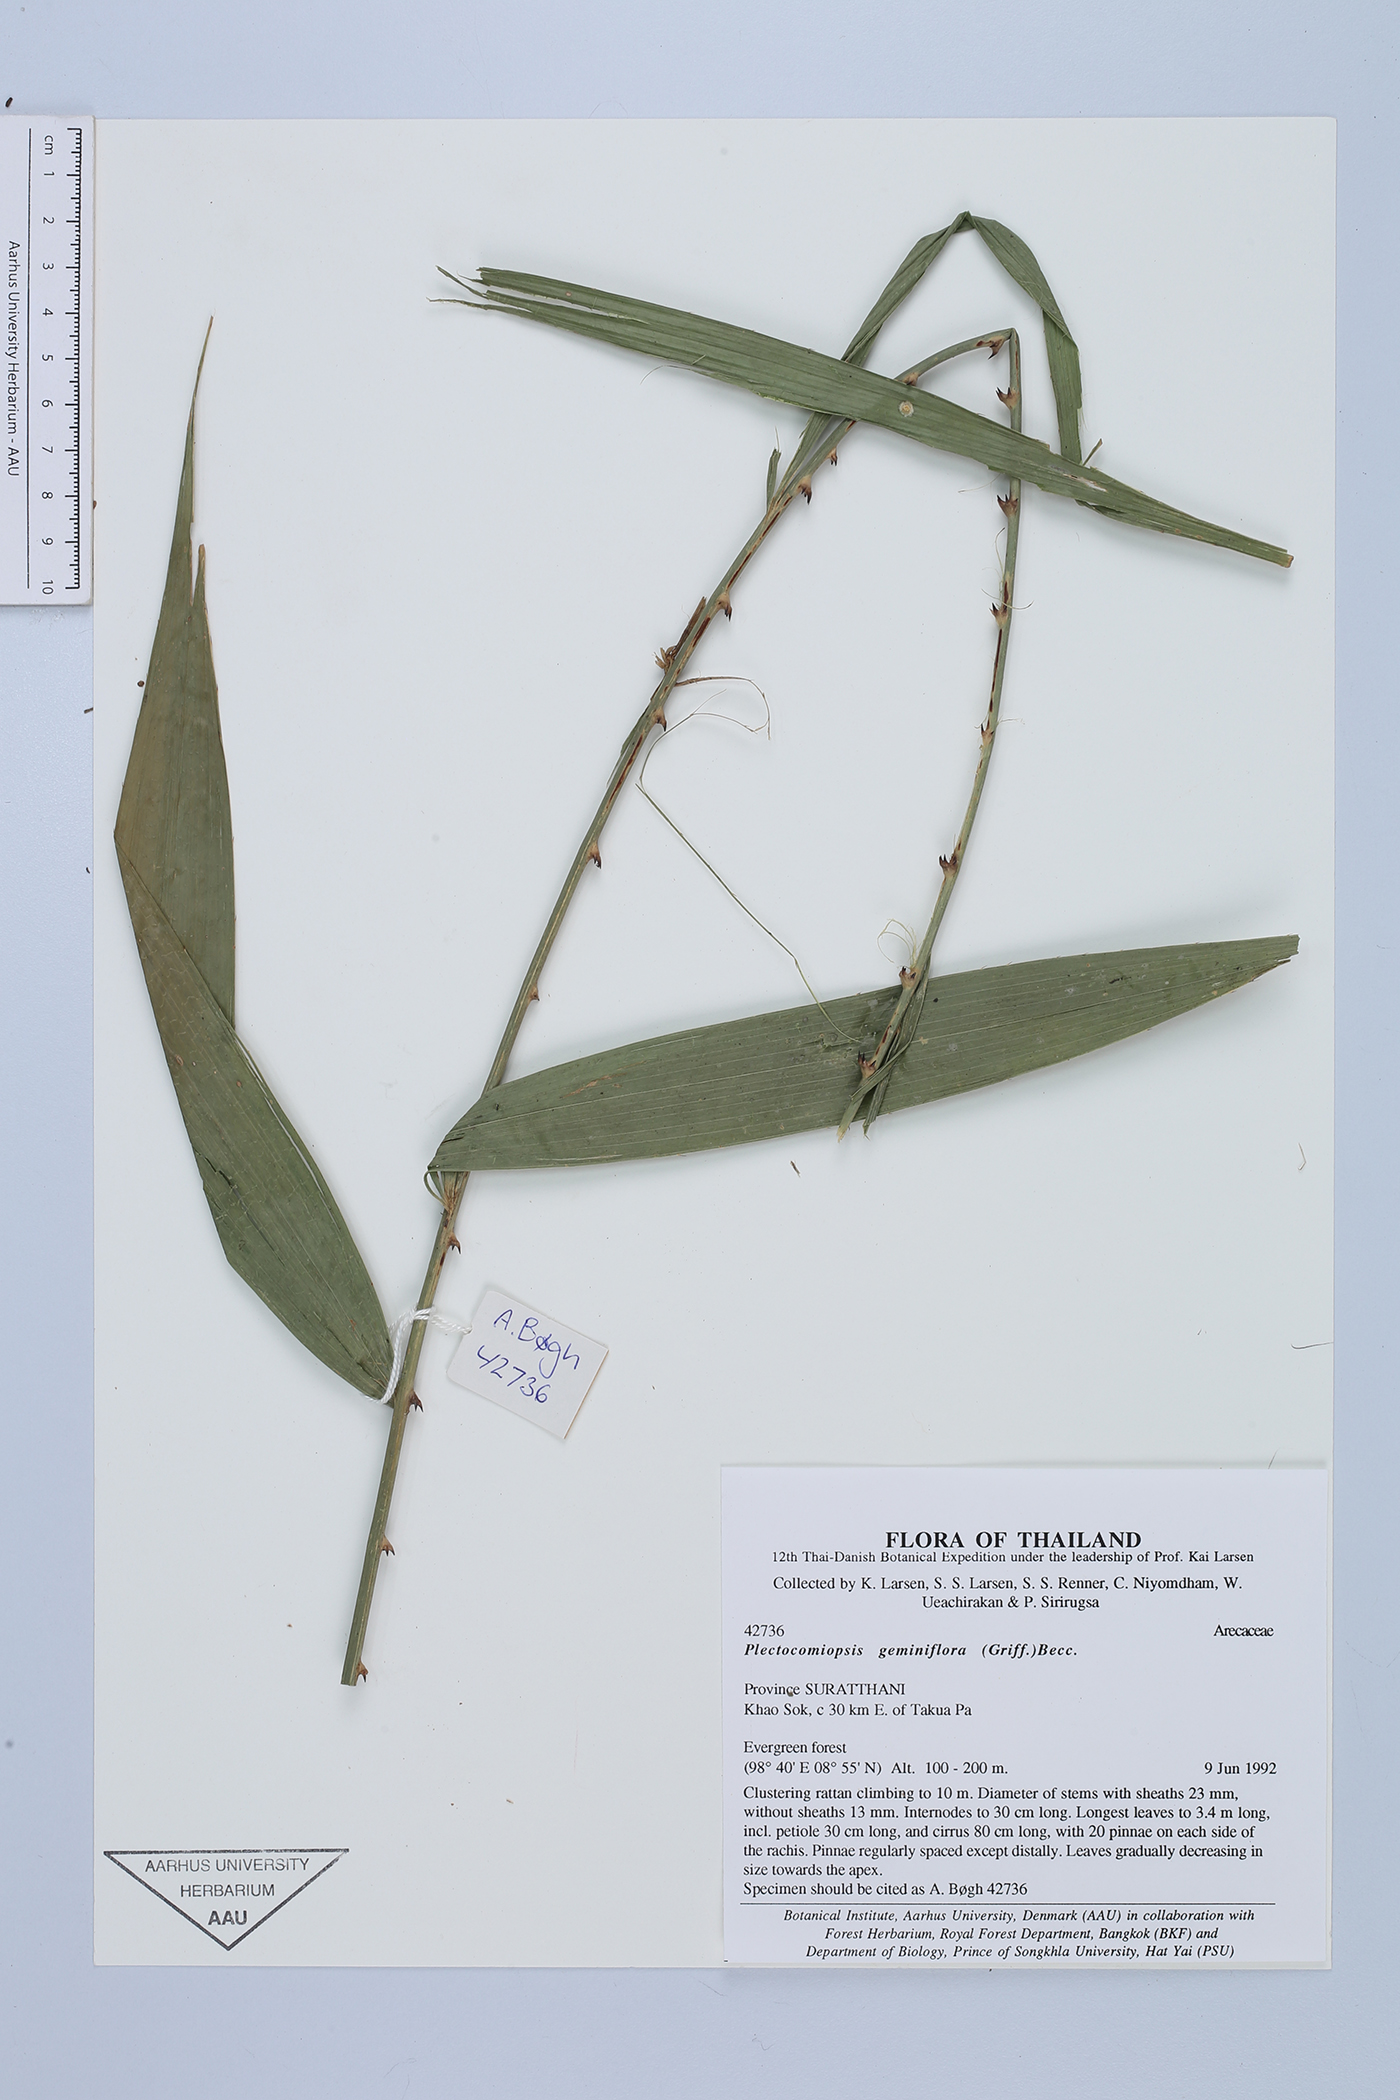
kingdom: Plantae
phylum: Tracheophyta
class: Liliopsida
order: Arecales
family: Arecaceae
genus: Plectocomiopsis
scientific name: Plectocomiopsis geminiflora
